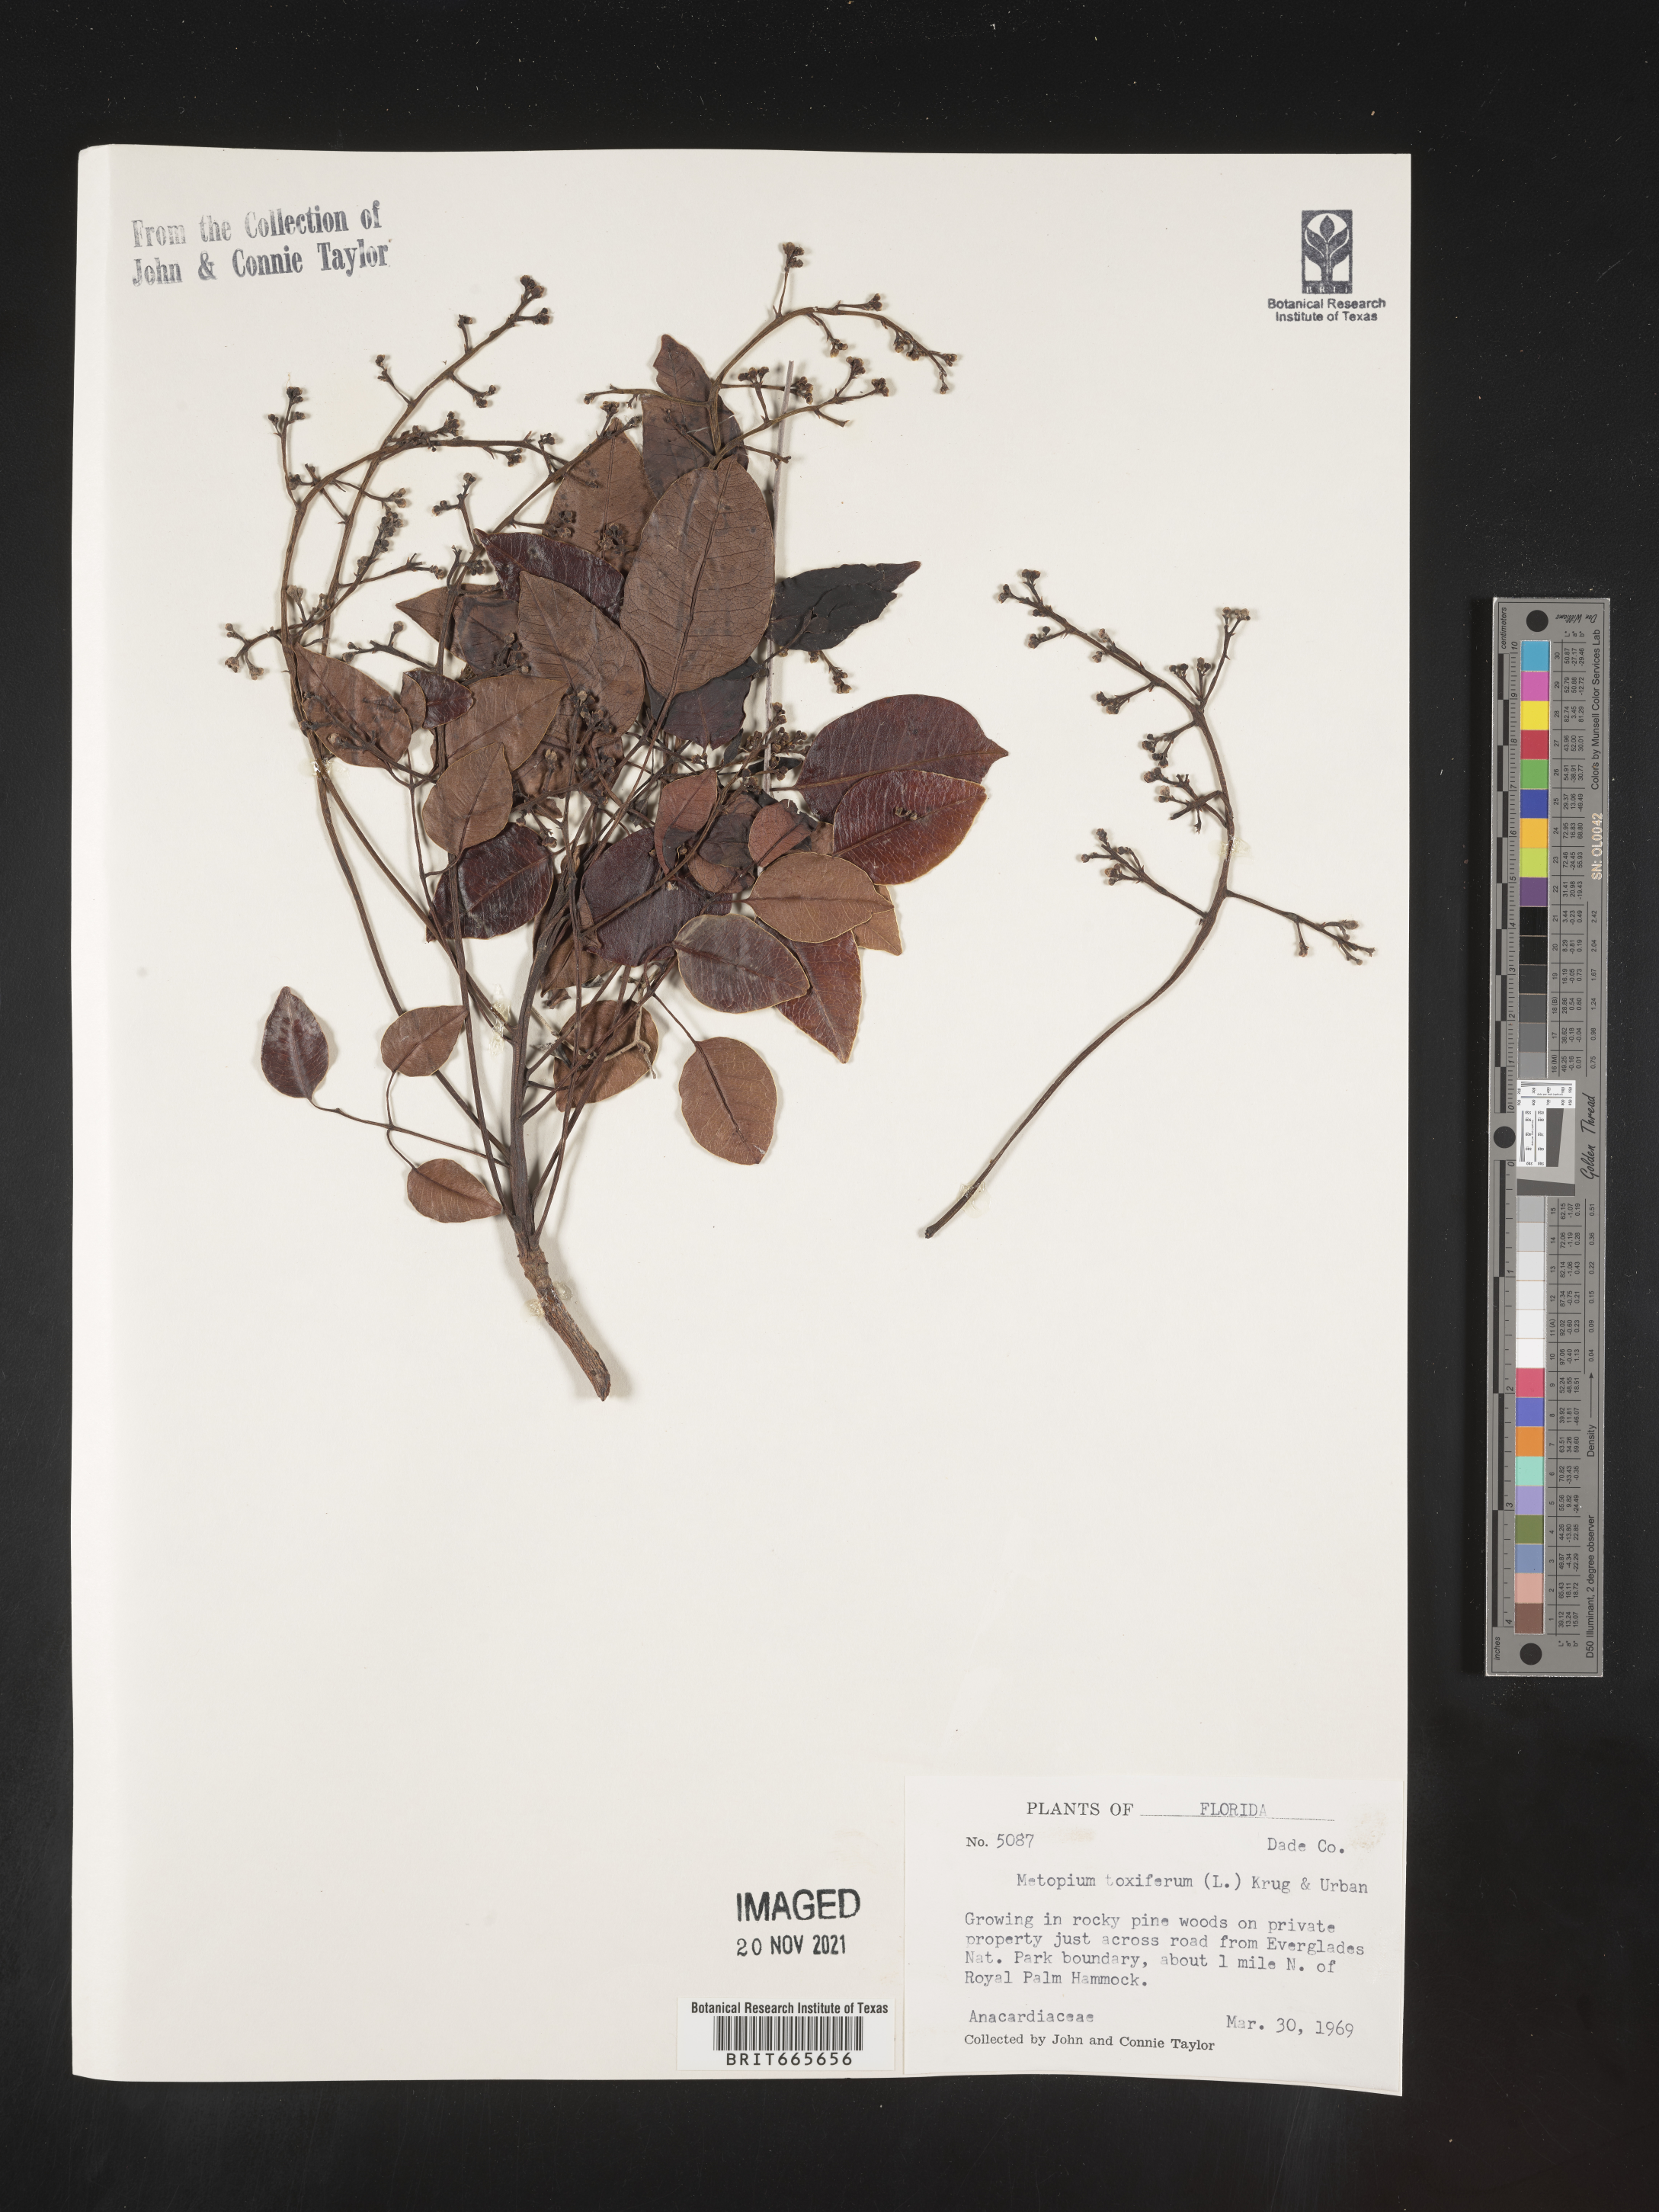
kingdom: Plantae
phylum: Tracheophyta
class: Magnoliopsida
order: Sapindales
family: Anacardiaceae
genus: Metopium
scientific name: Metopium
